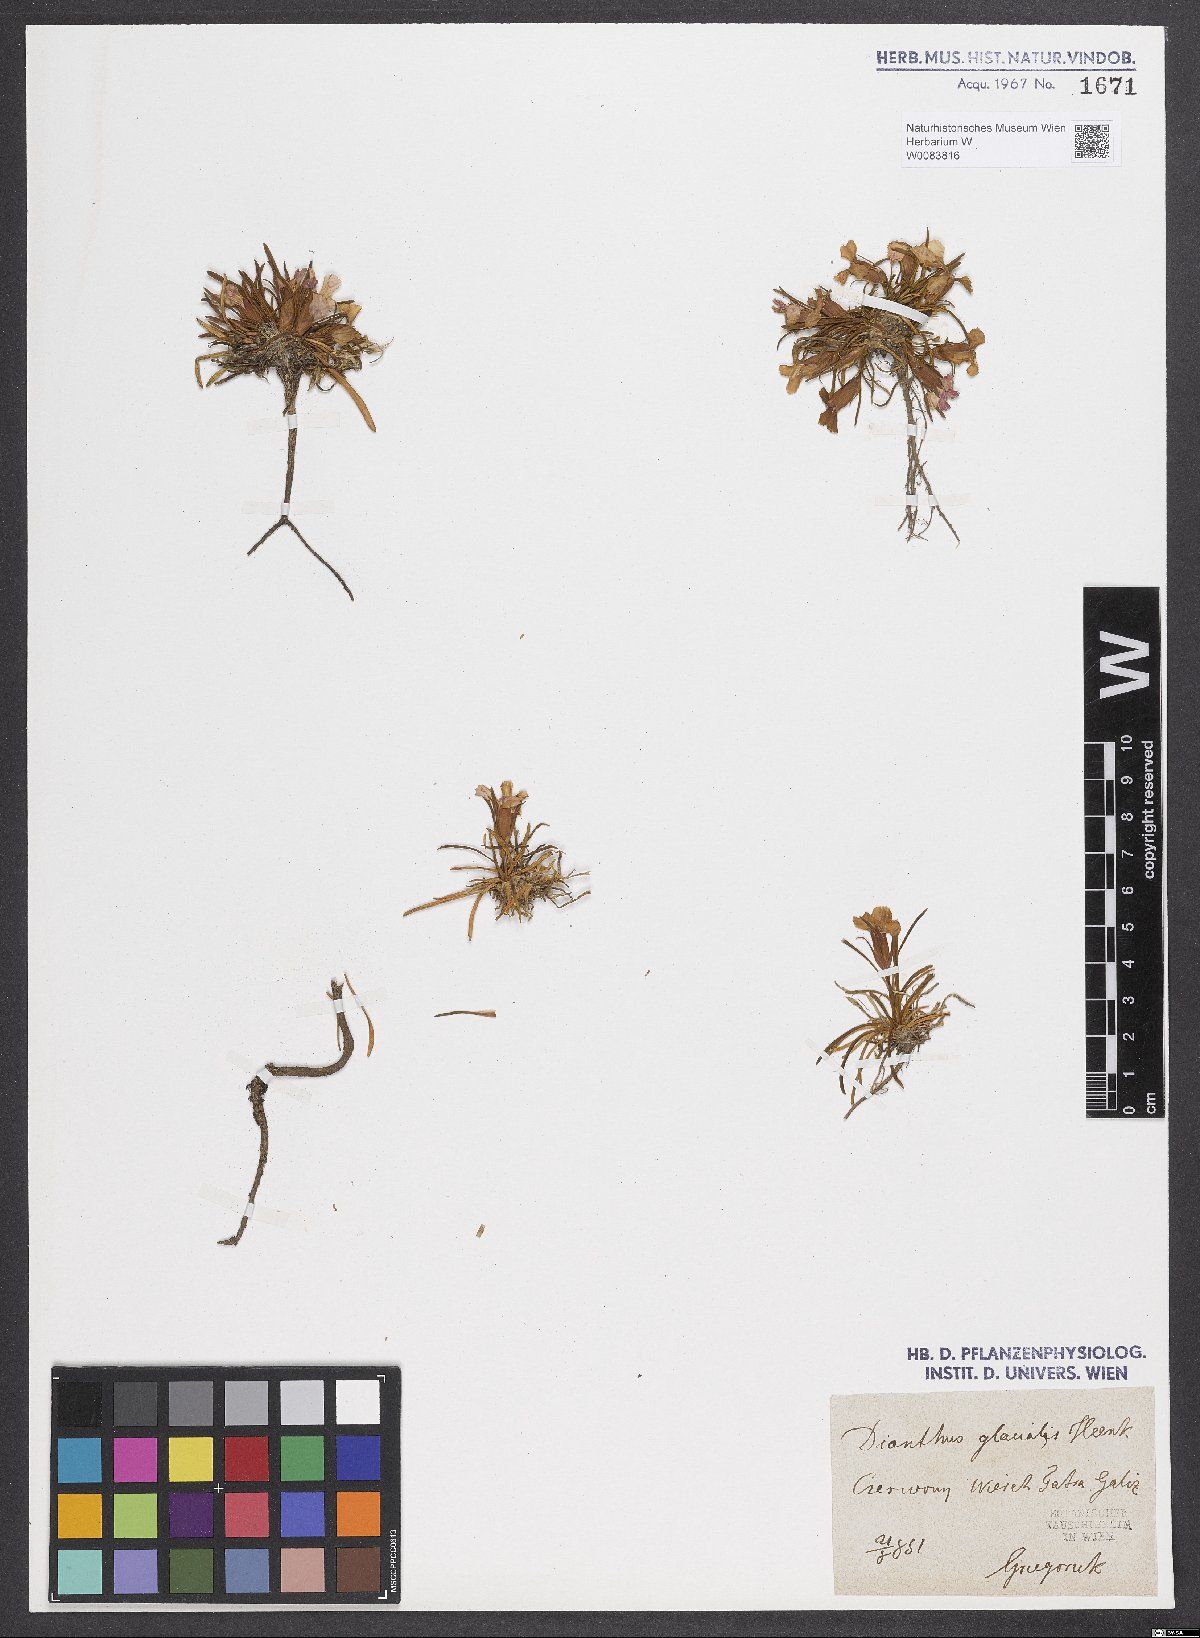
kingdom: Plantae
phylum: Tracheophyta
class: Magnoliopsida
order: Caryophyllales
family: Caryophyllaceae
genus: Dianthus
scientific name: Dianthus glacialis
